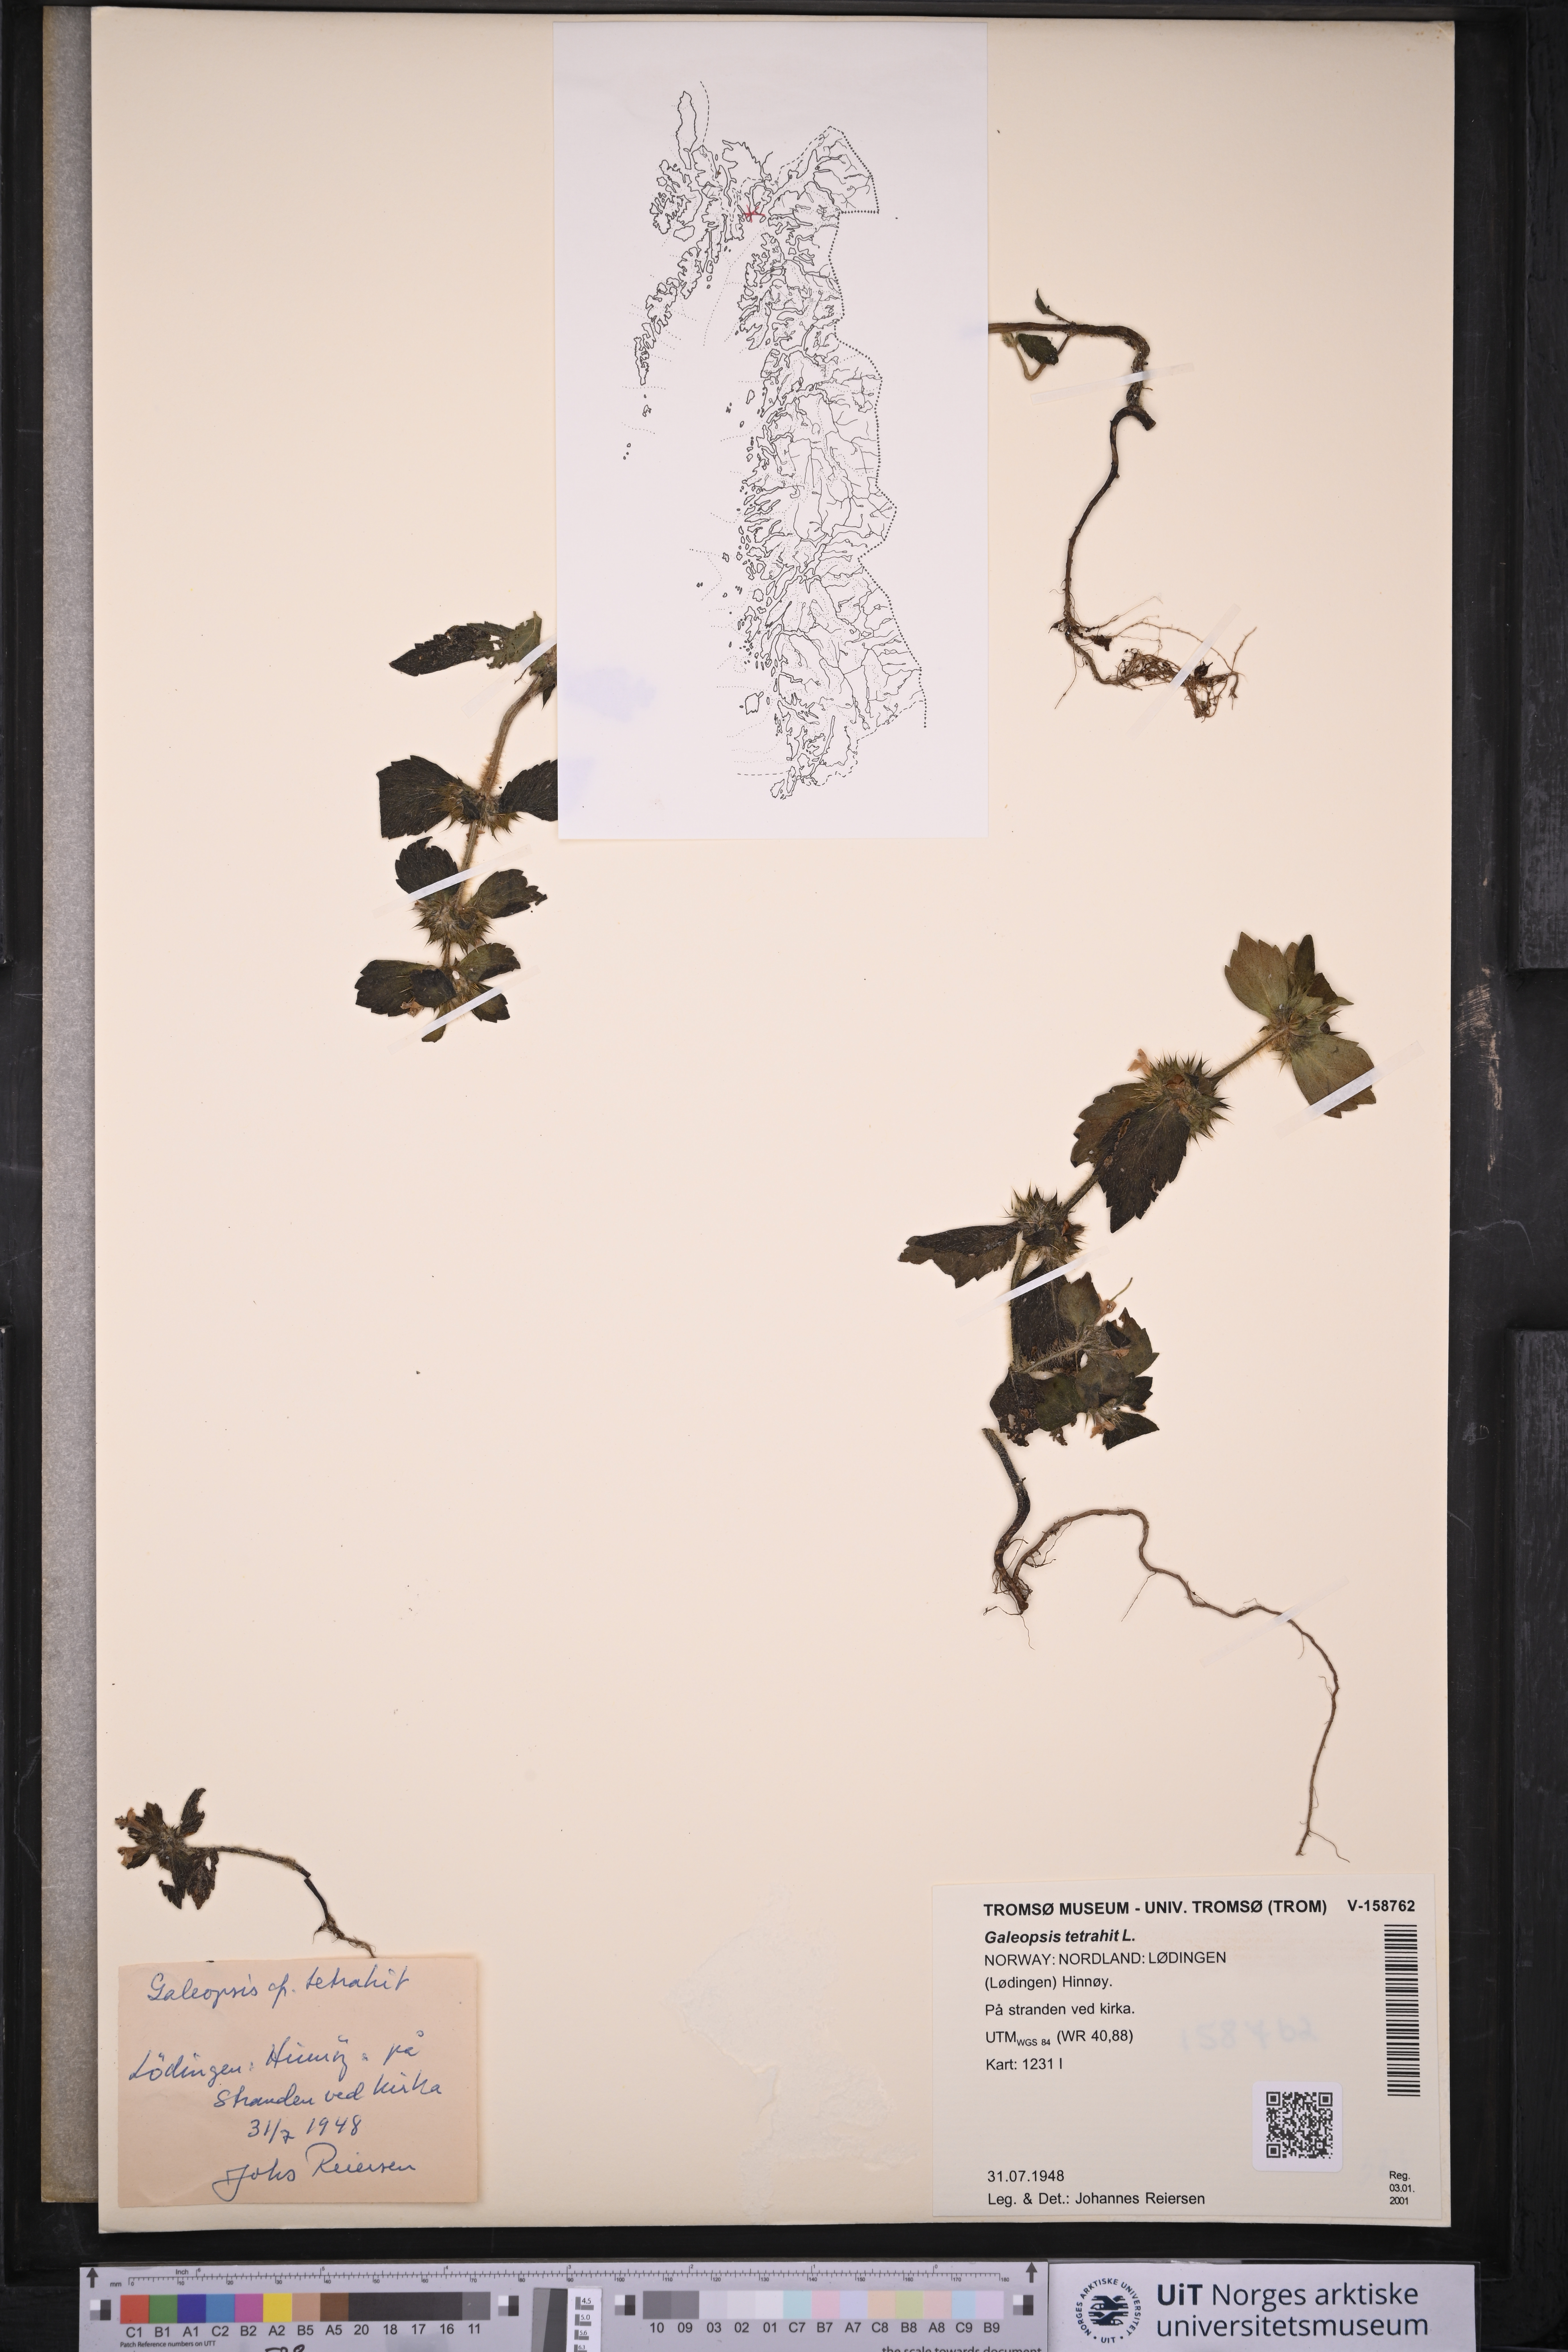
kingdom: Plantae
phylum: Tracheophyta
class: Magnoliopsida
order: Lamiales
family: Lamiaceae
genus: Galeopsis
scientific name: Galeopsis tetrahit
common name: Common hemp-nettle
